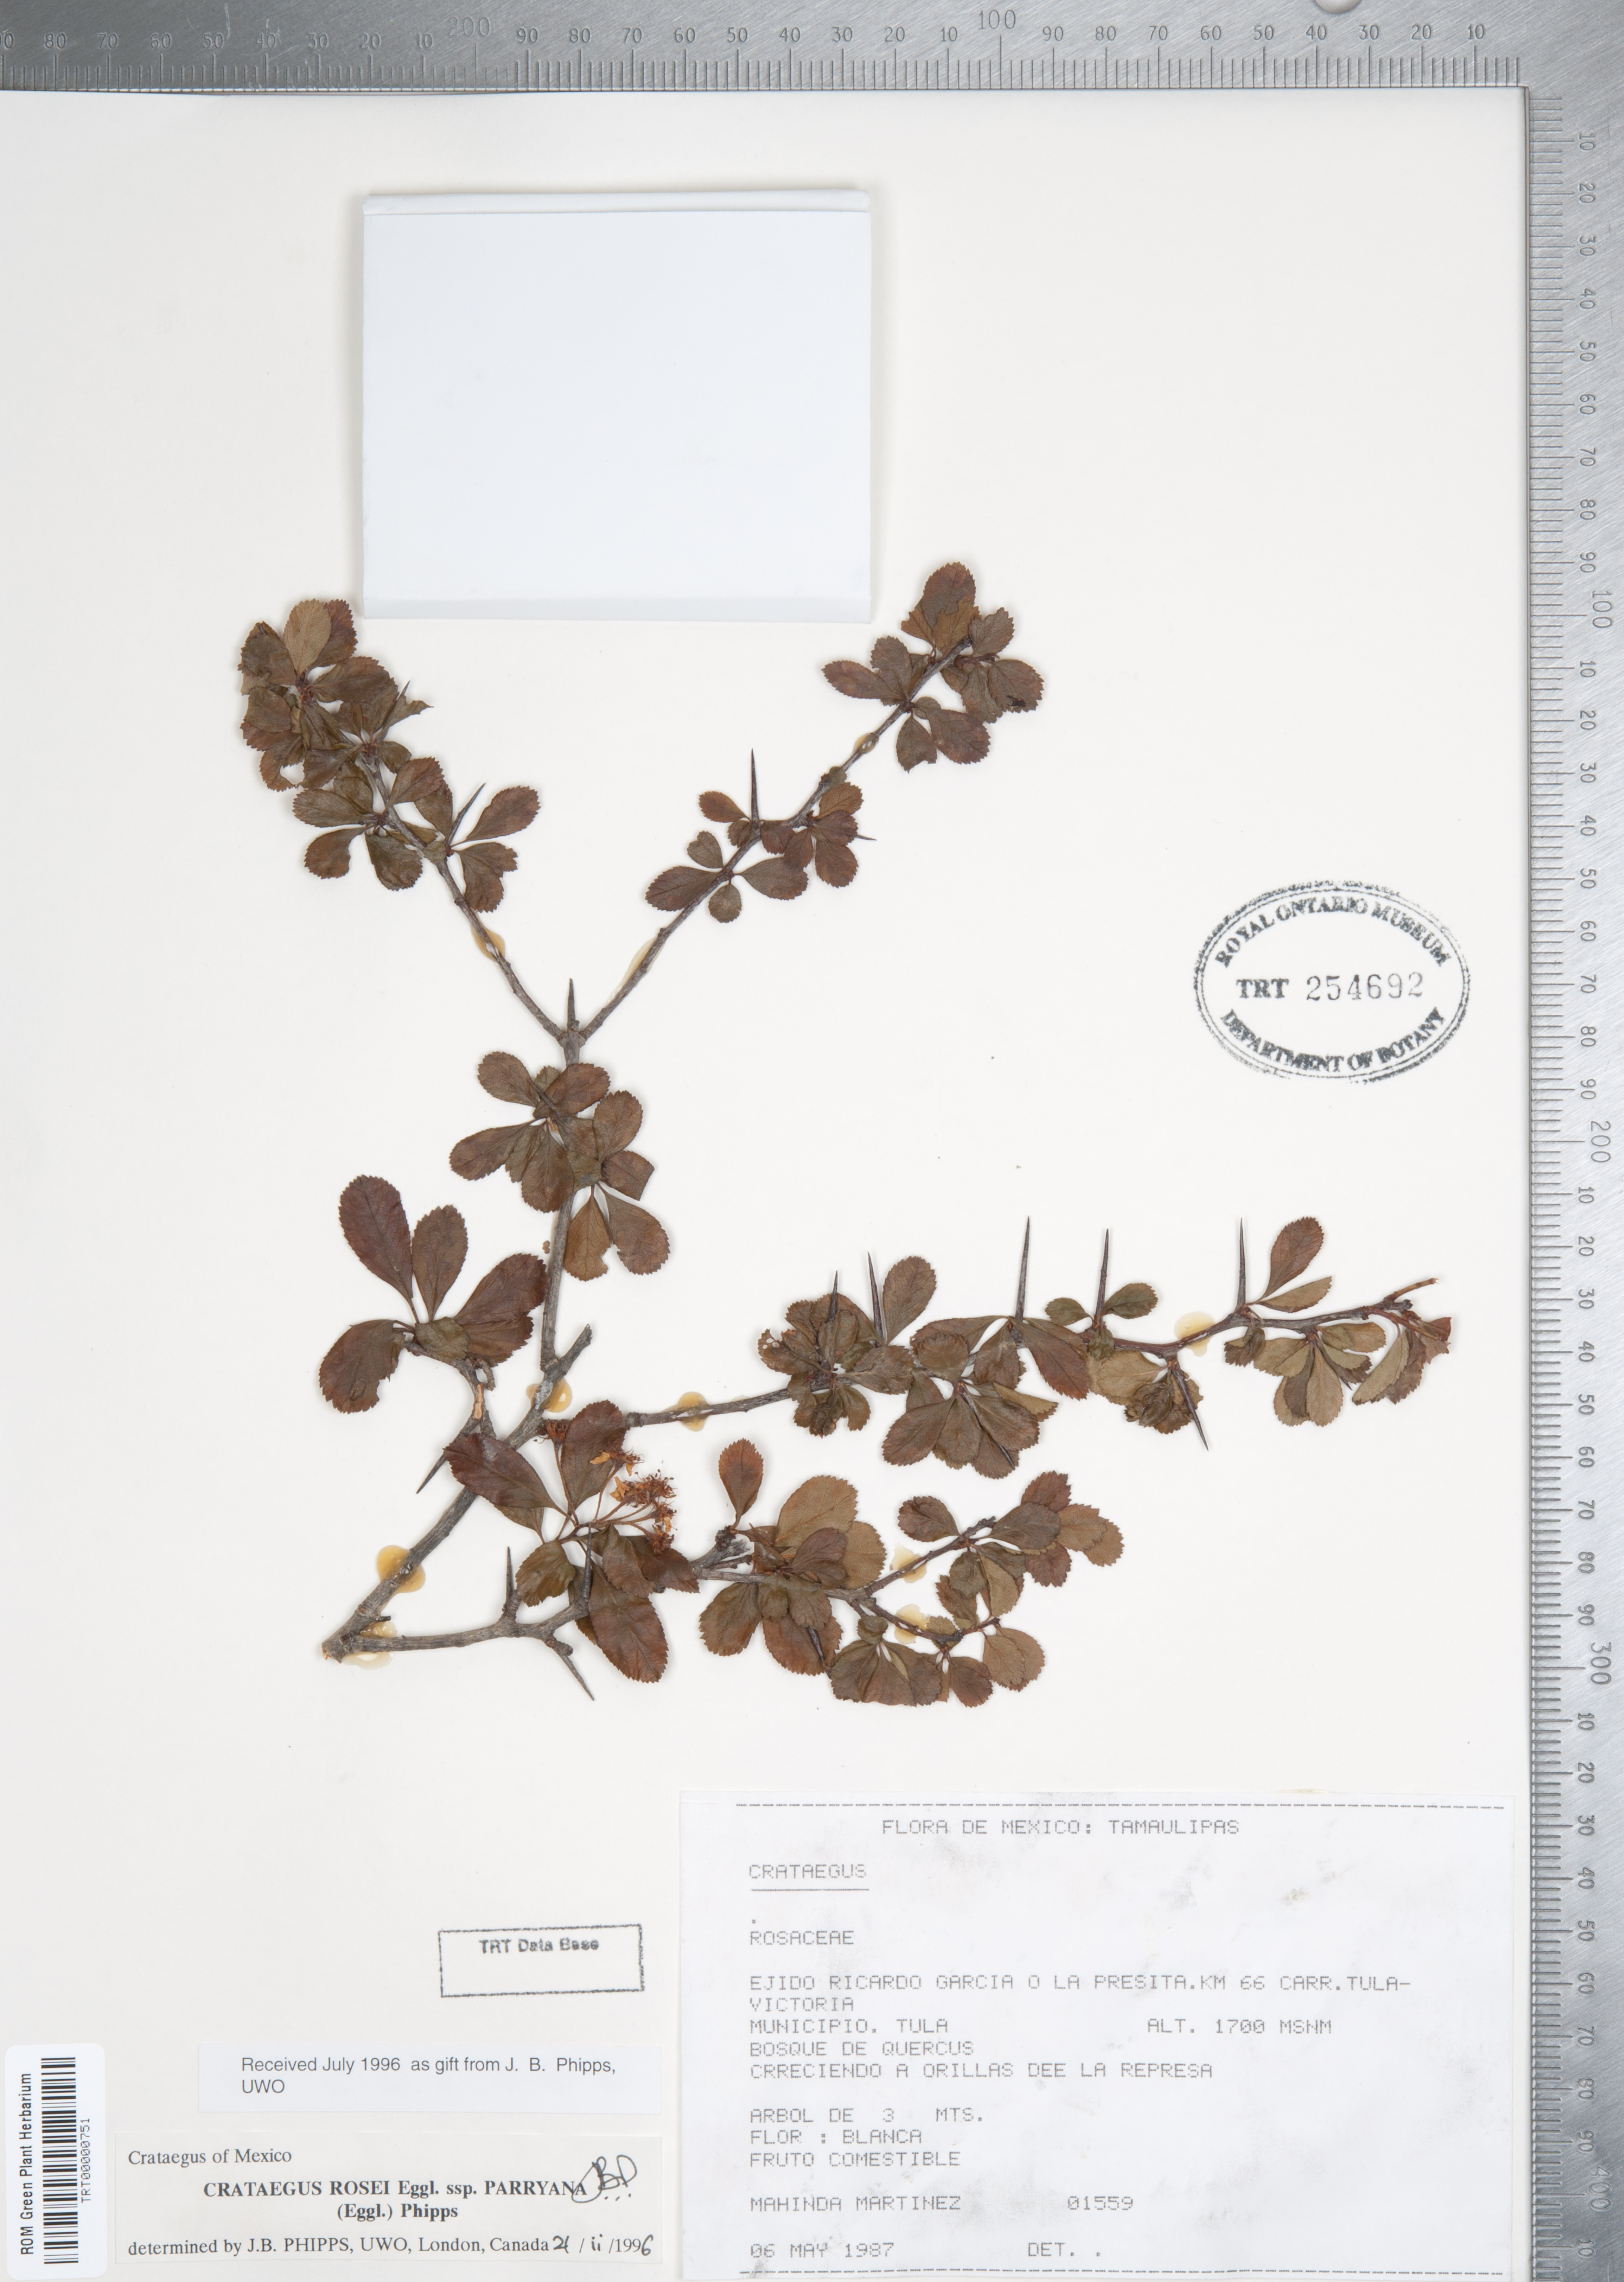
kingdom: Plantae
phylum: Tracheophyta
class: Magnoliopsida
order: Rosales
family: Rosaceae
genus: Crataegus
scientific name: Crataegus rosei
